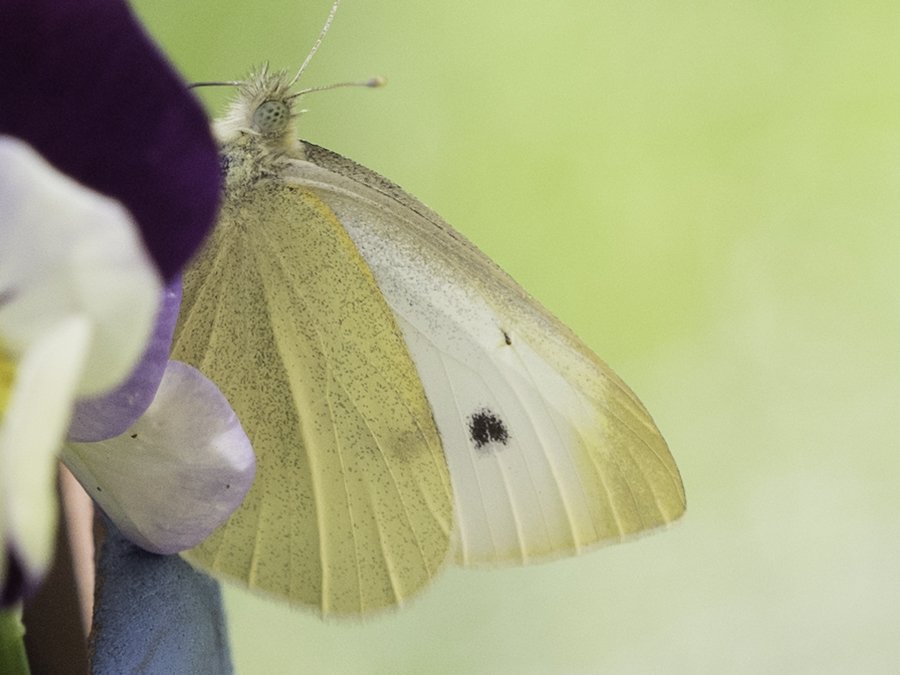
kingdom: Animalia
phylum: Arthropoda
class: Insecta
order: Lepidoptera
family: Pieridae
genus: Pieris
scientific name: Pieris rapae
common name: Cabbage White
